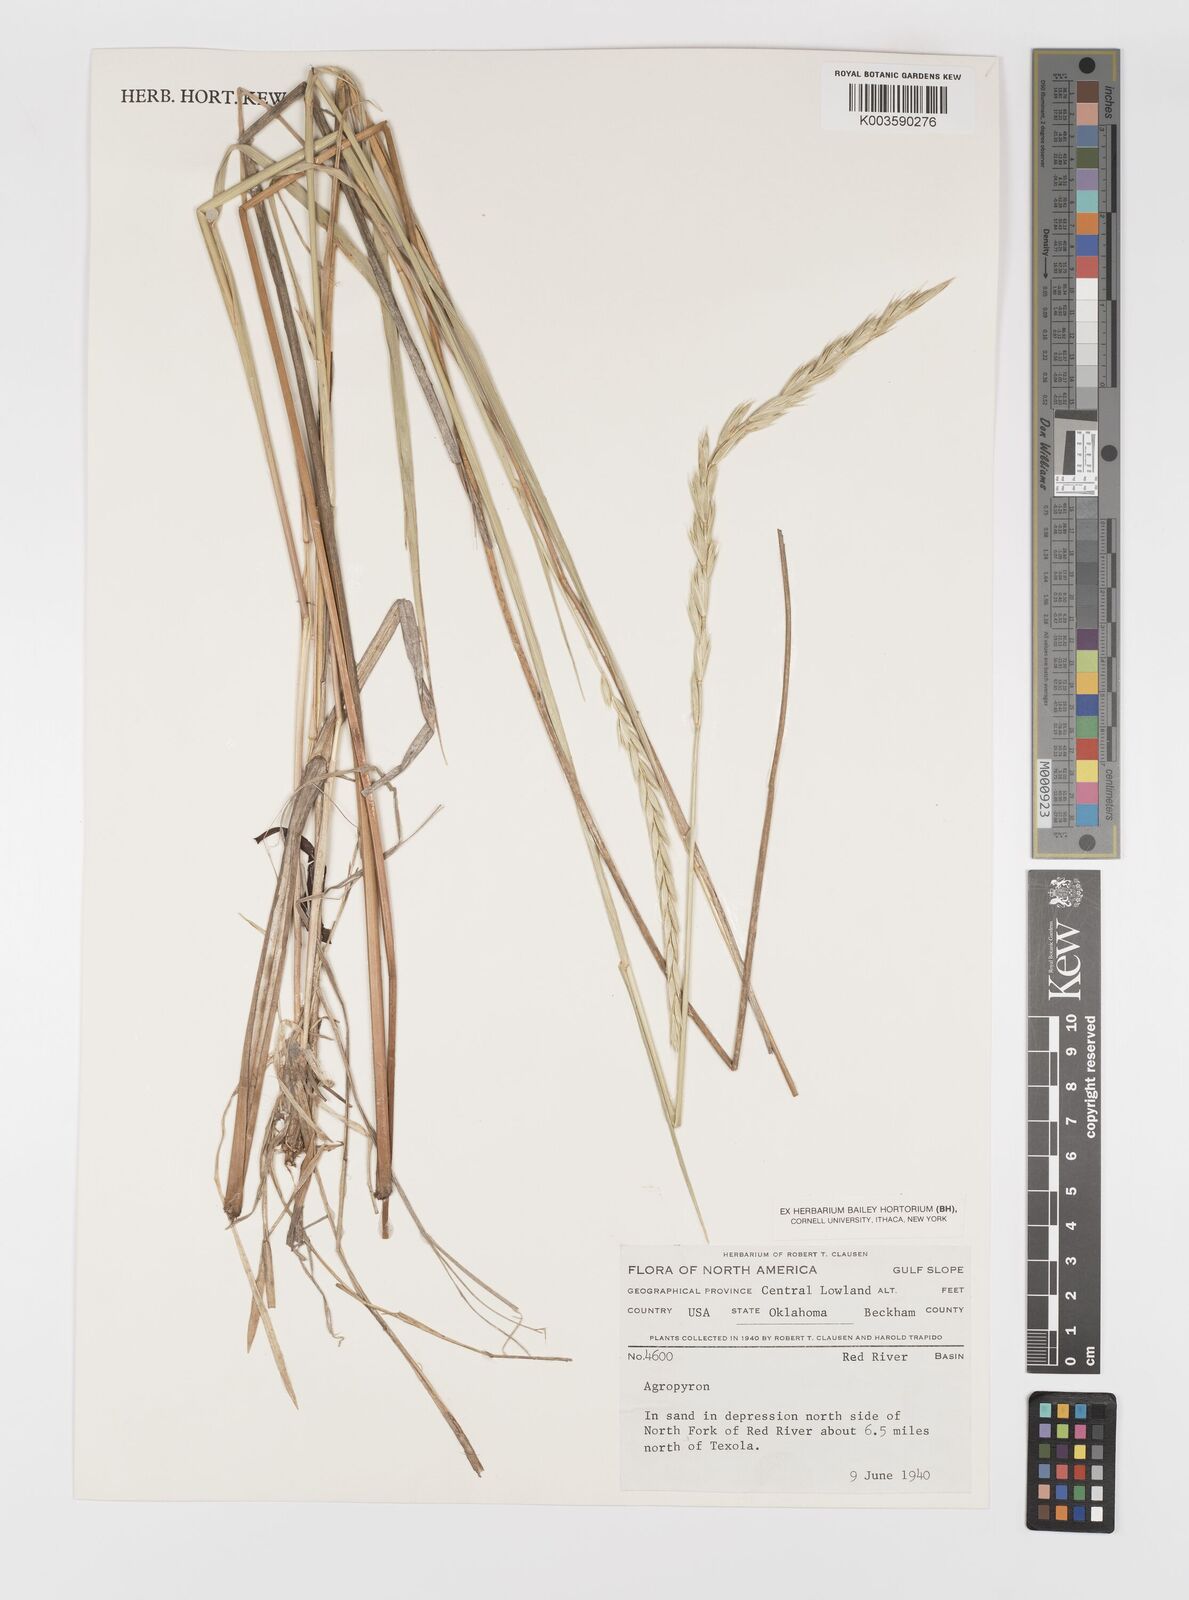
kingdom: Plantae
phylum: Tracheophyta
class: Liliopsida
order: Poales
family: Poaceae
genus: Elymus
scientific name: Elymus
